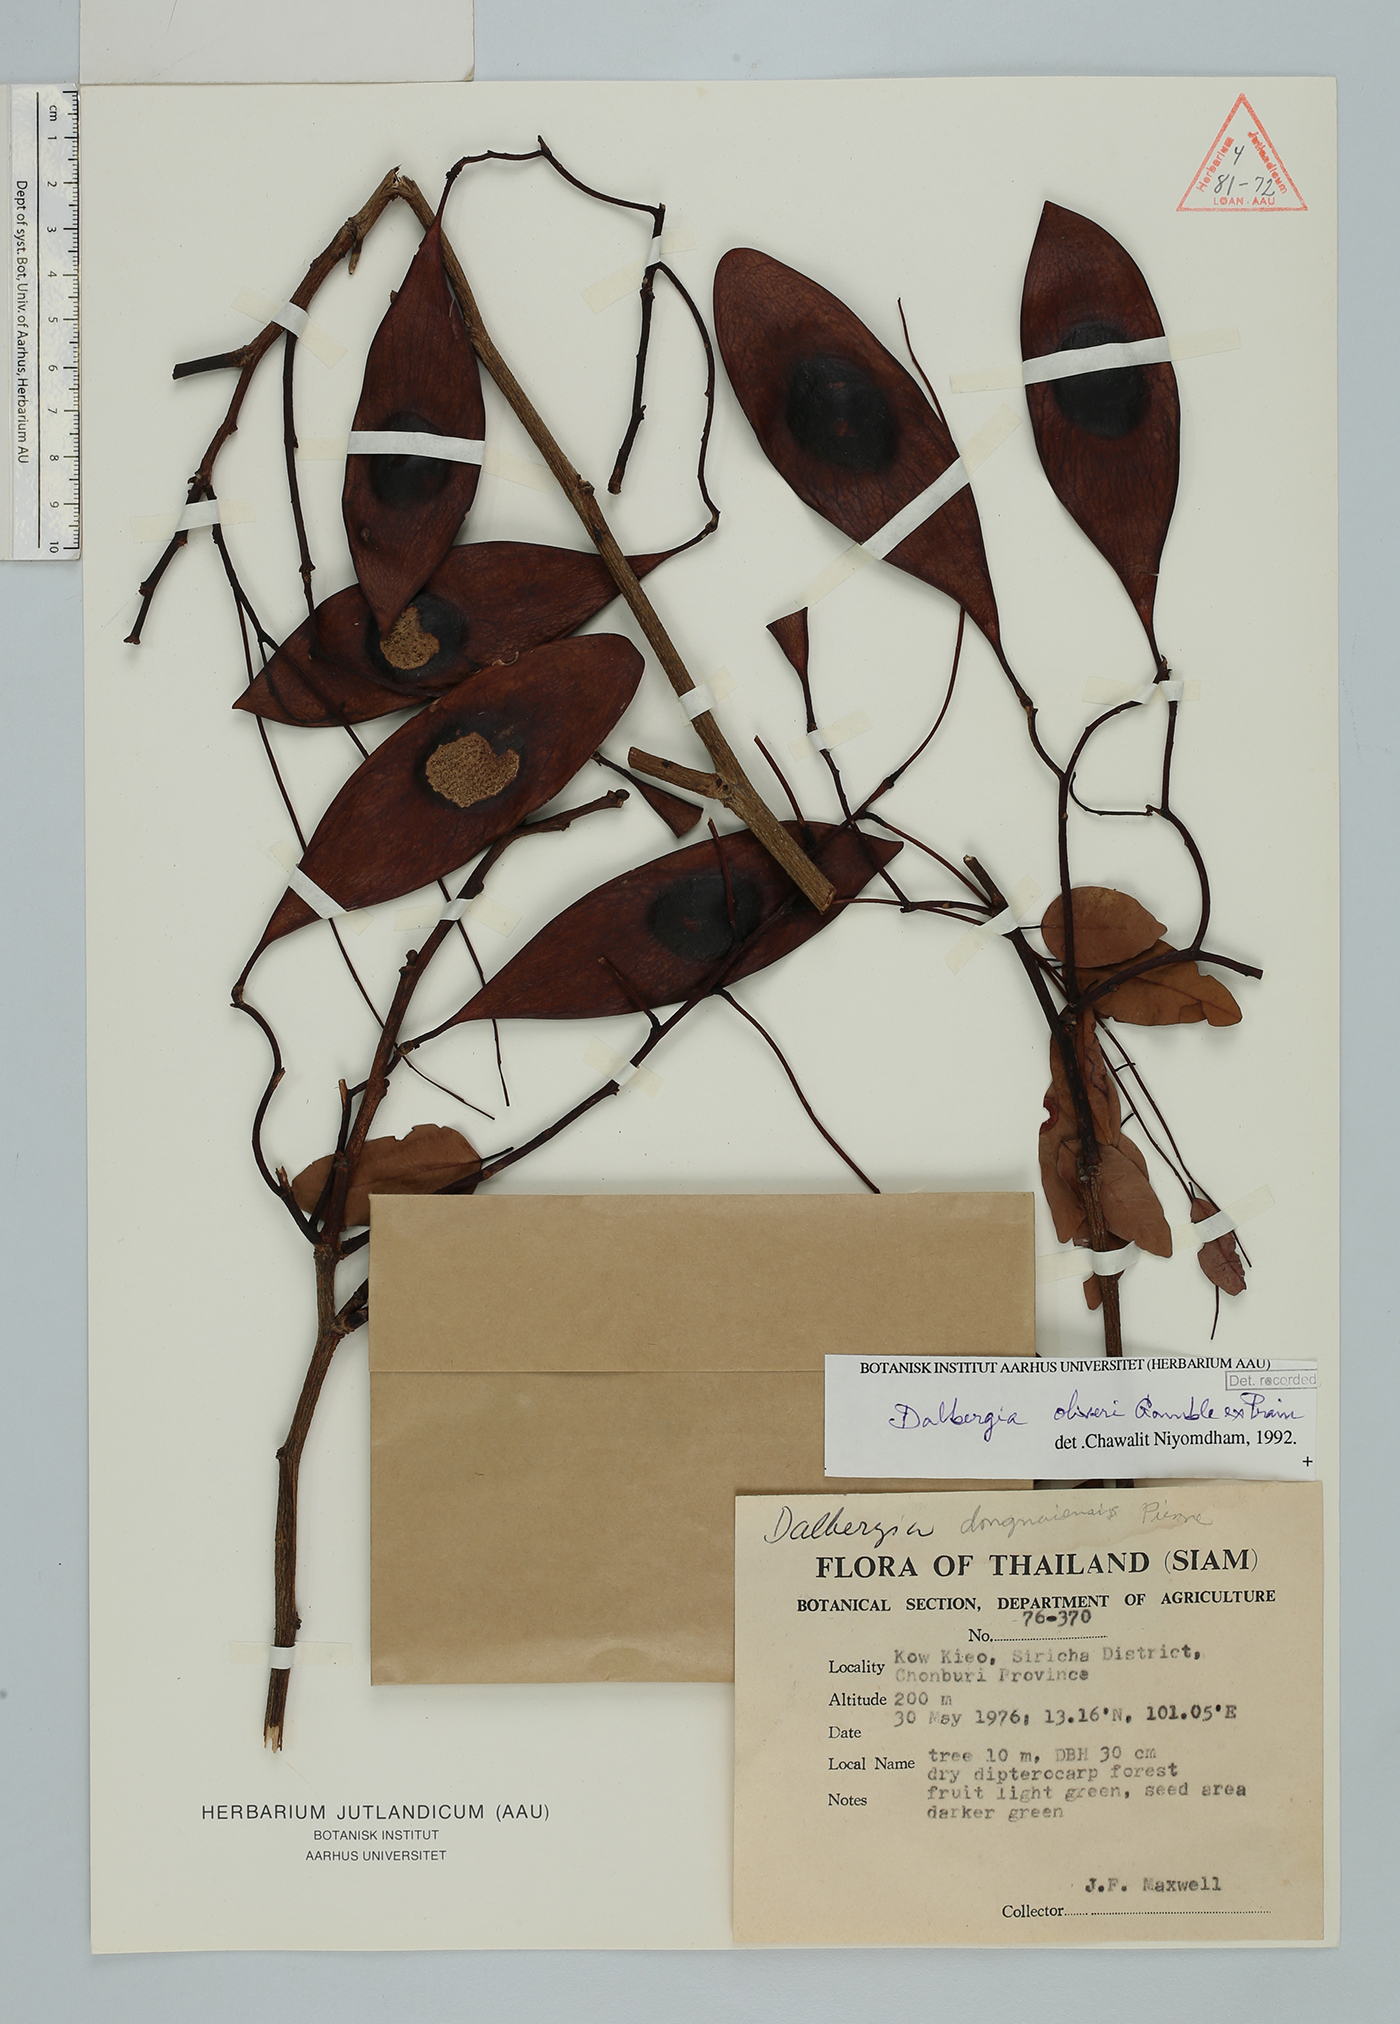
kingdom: Plantae
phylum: Tracheophyta
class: Magnoliopsida
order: Fabales
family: Fabaceae
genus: Dalbergia
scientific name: Dalbergia oliveri
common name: Burmese rosewood
